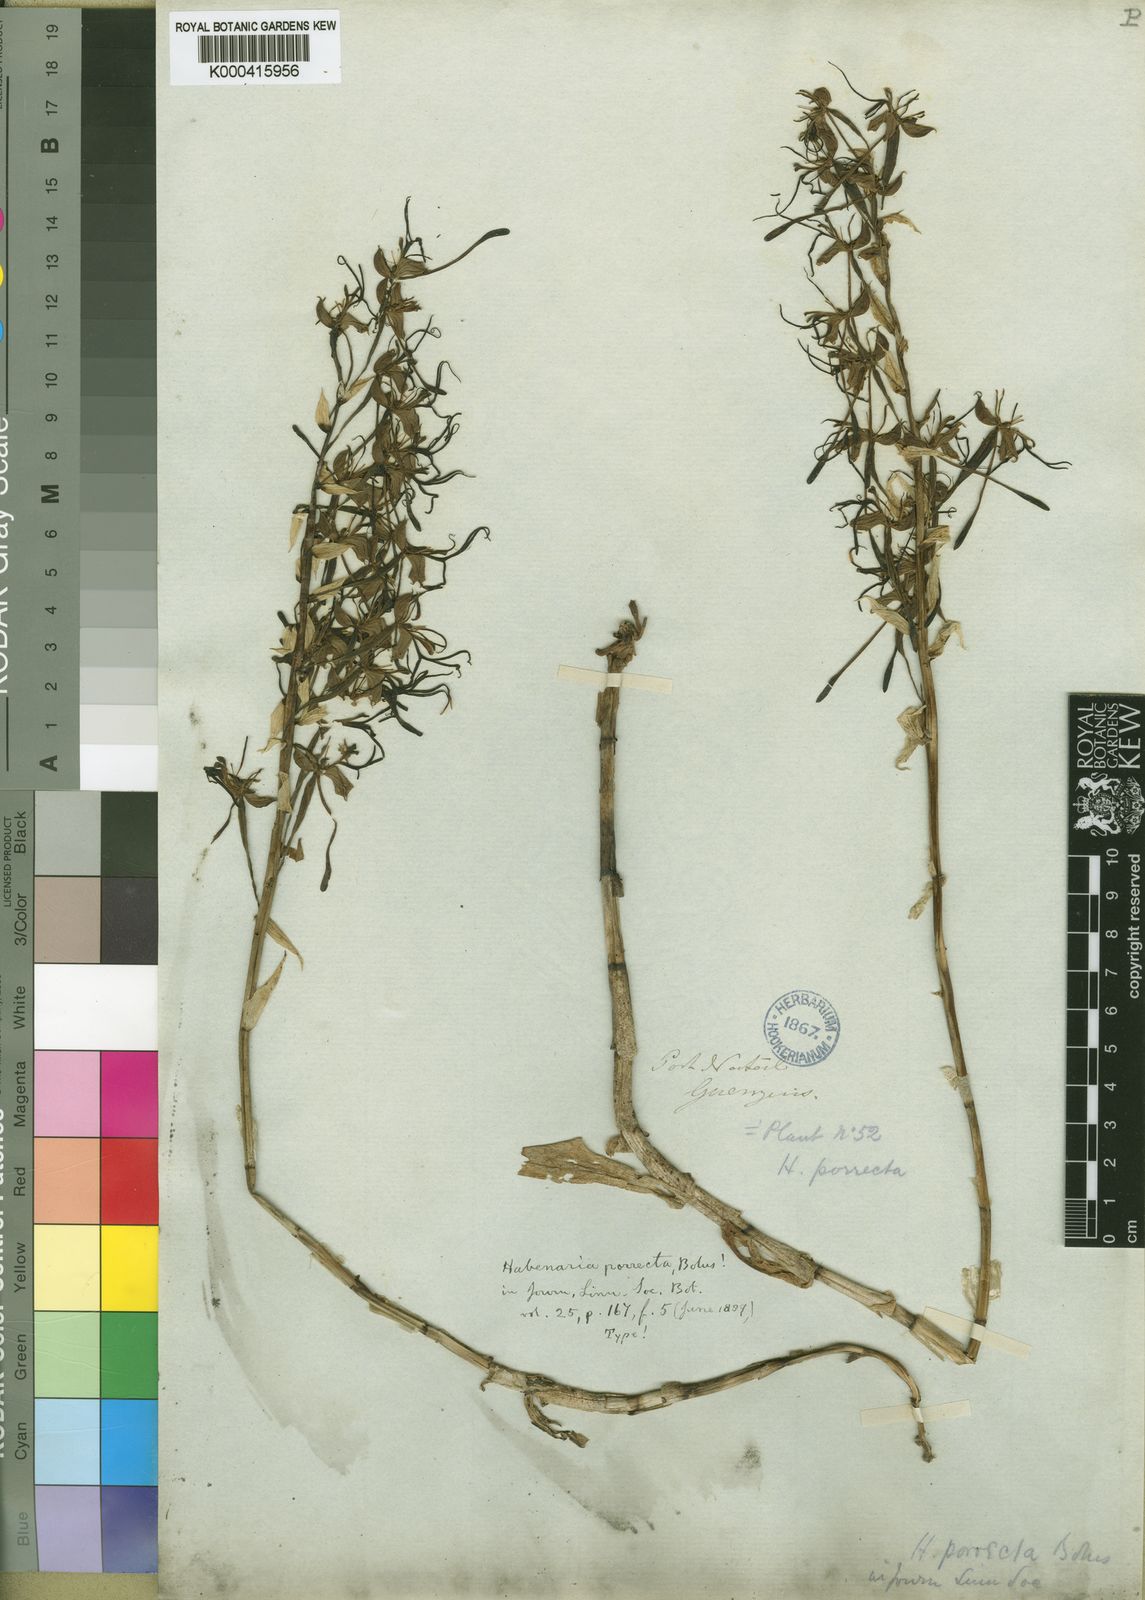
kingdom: Plantae
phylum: Tracheophyta
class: Liliopsida
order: Asparagales
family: Orchidaceae
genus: Bonatea
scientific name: Bonatea porrecta
